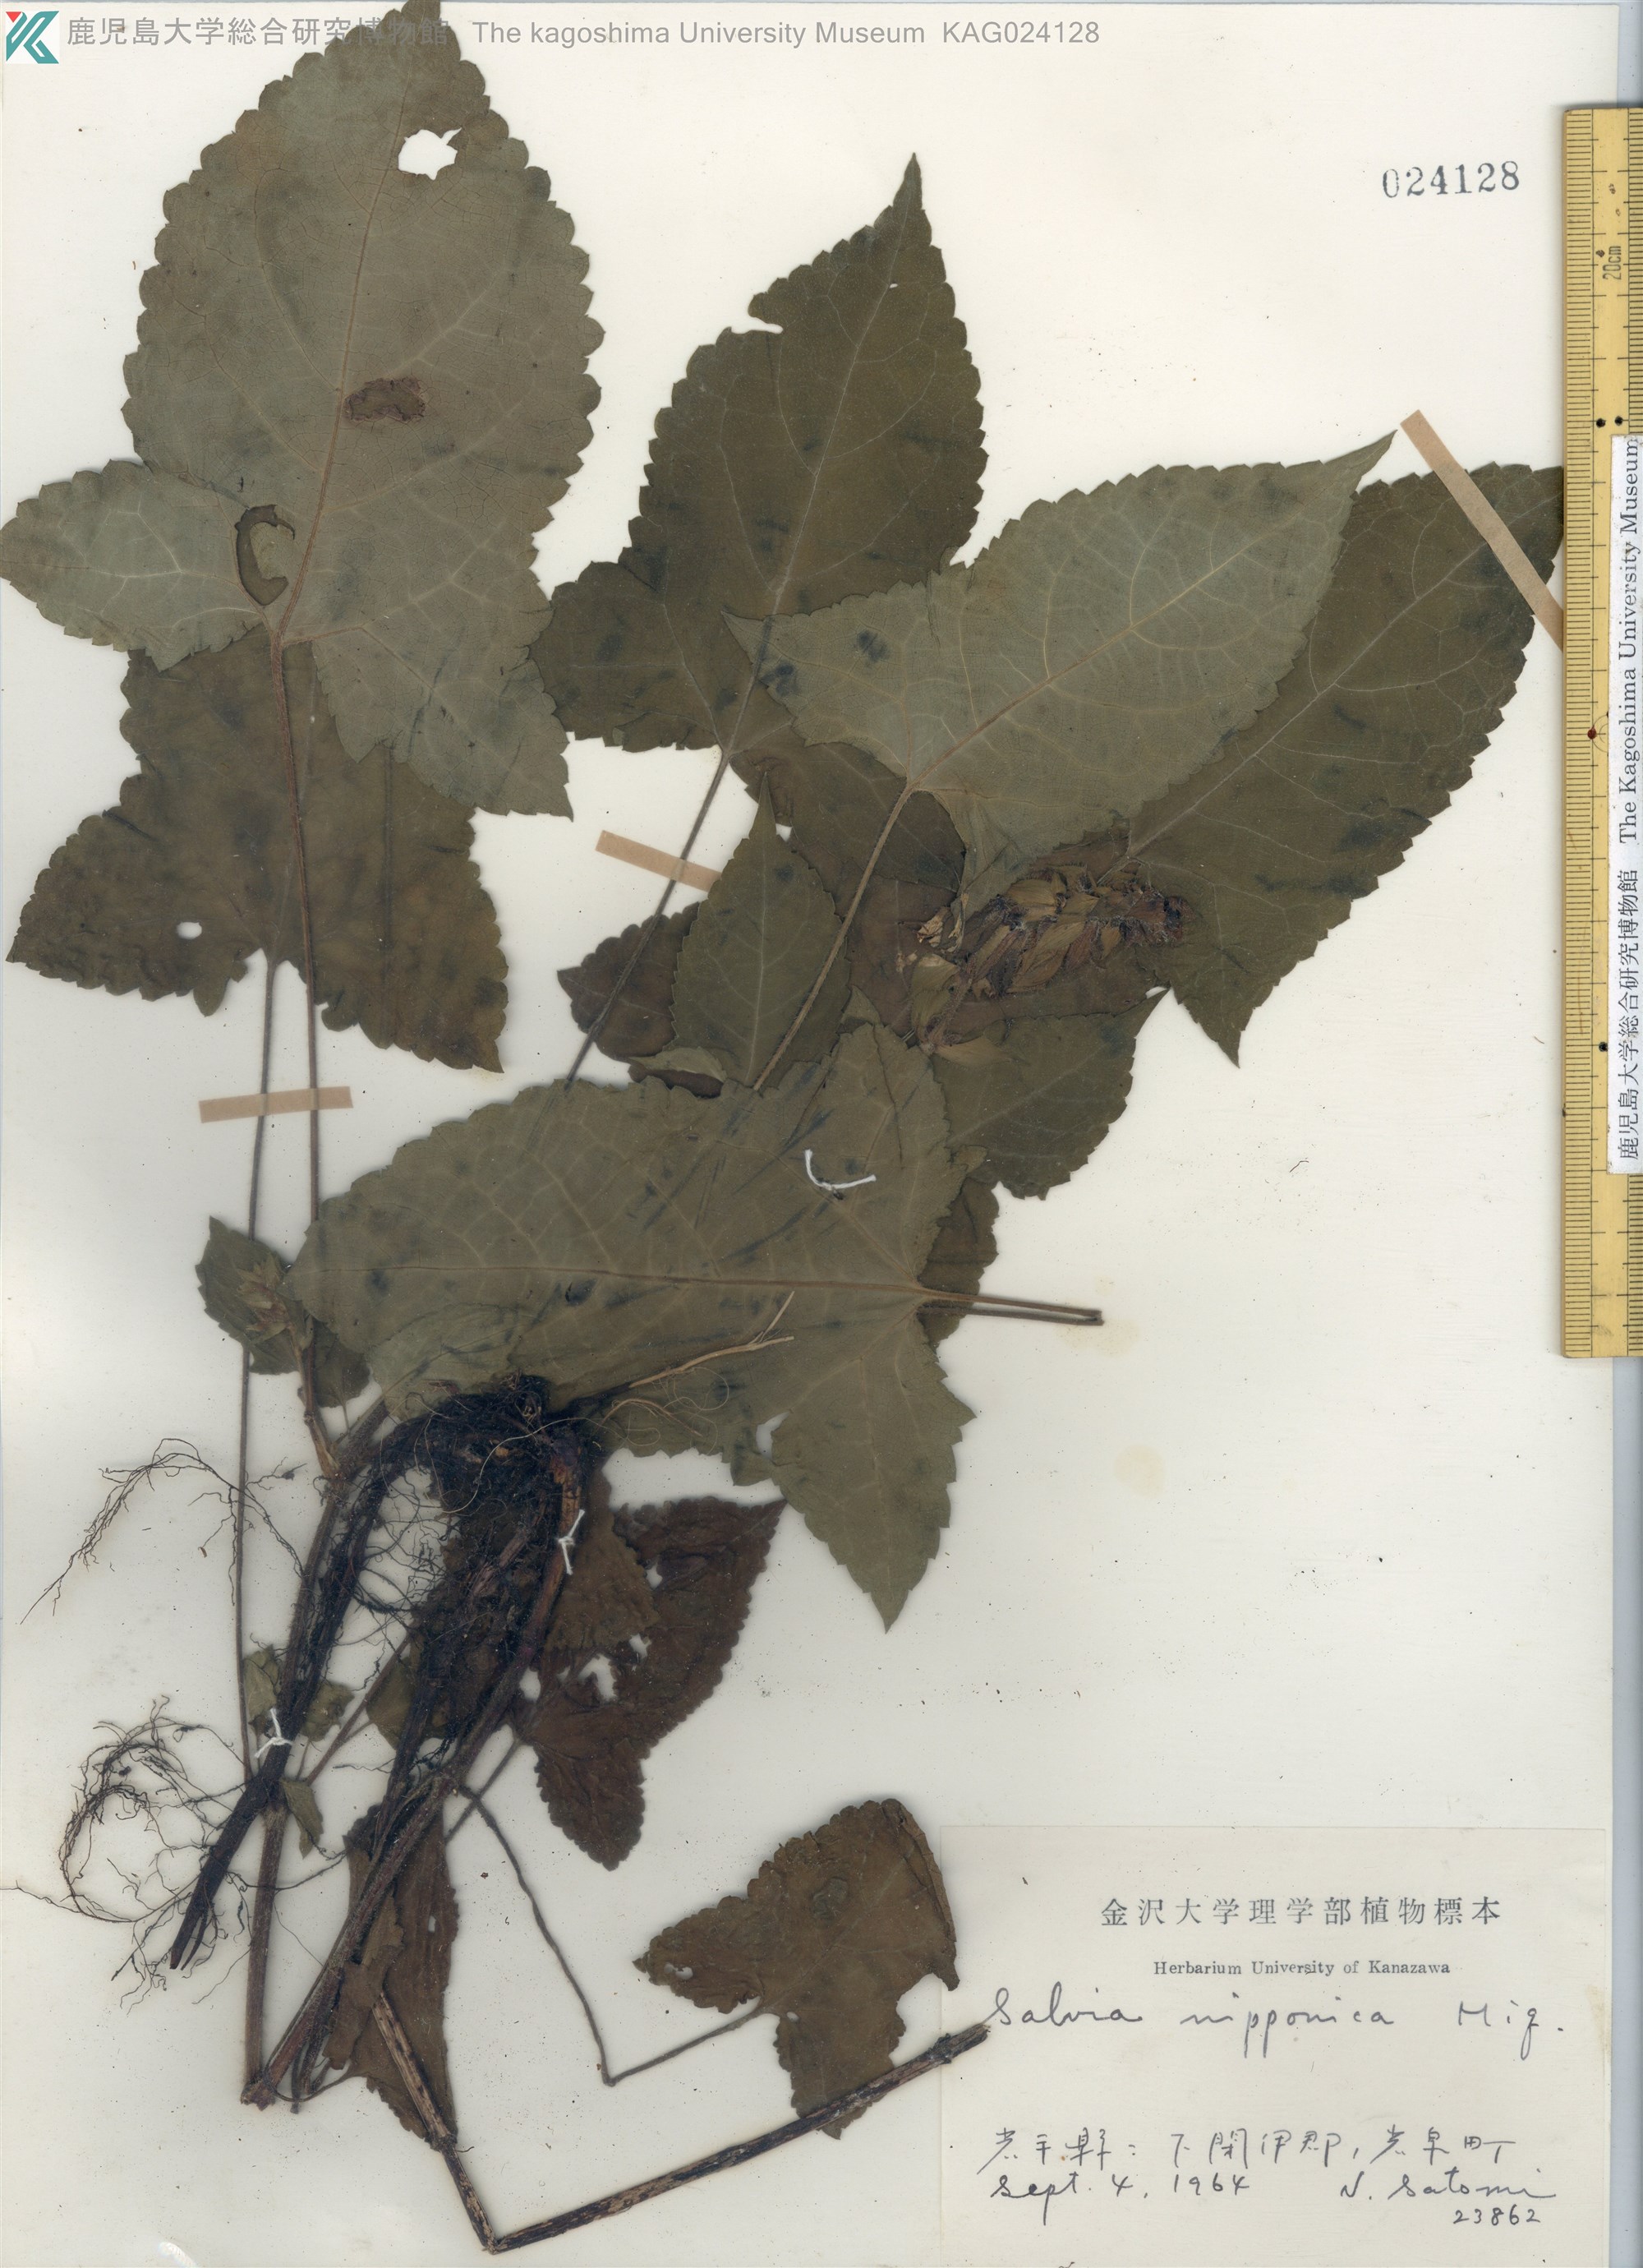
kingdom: Plantae
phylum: Tracheophyta
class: Magnoliopsida
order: Lamiales
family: Lamiaceae
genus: Salvia
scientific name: Salvia nipponica
